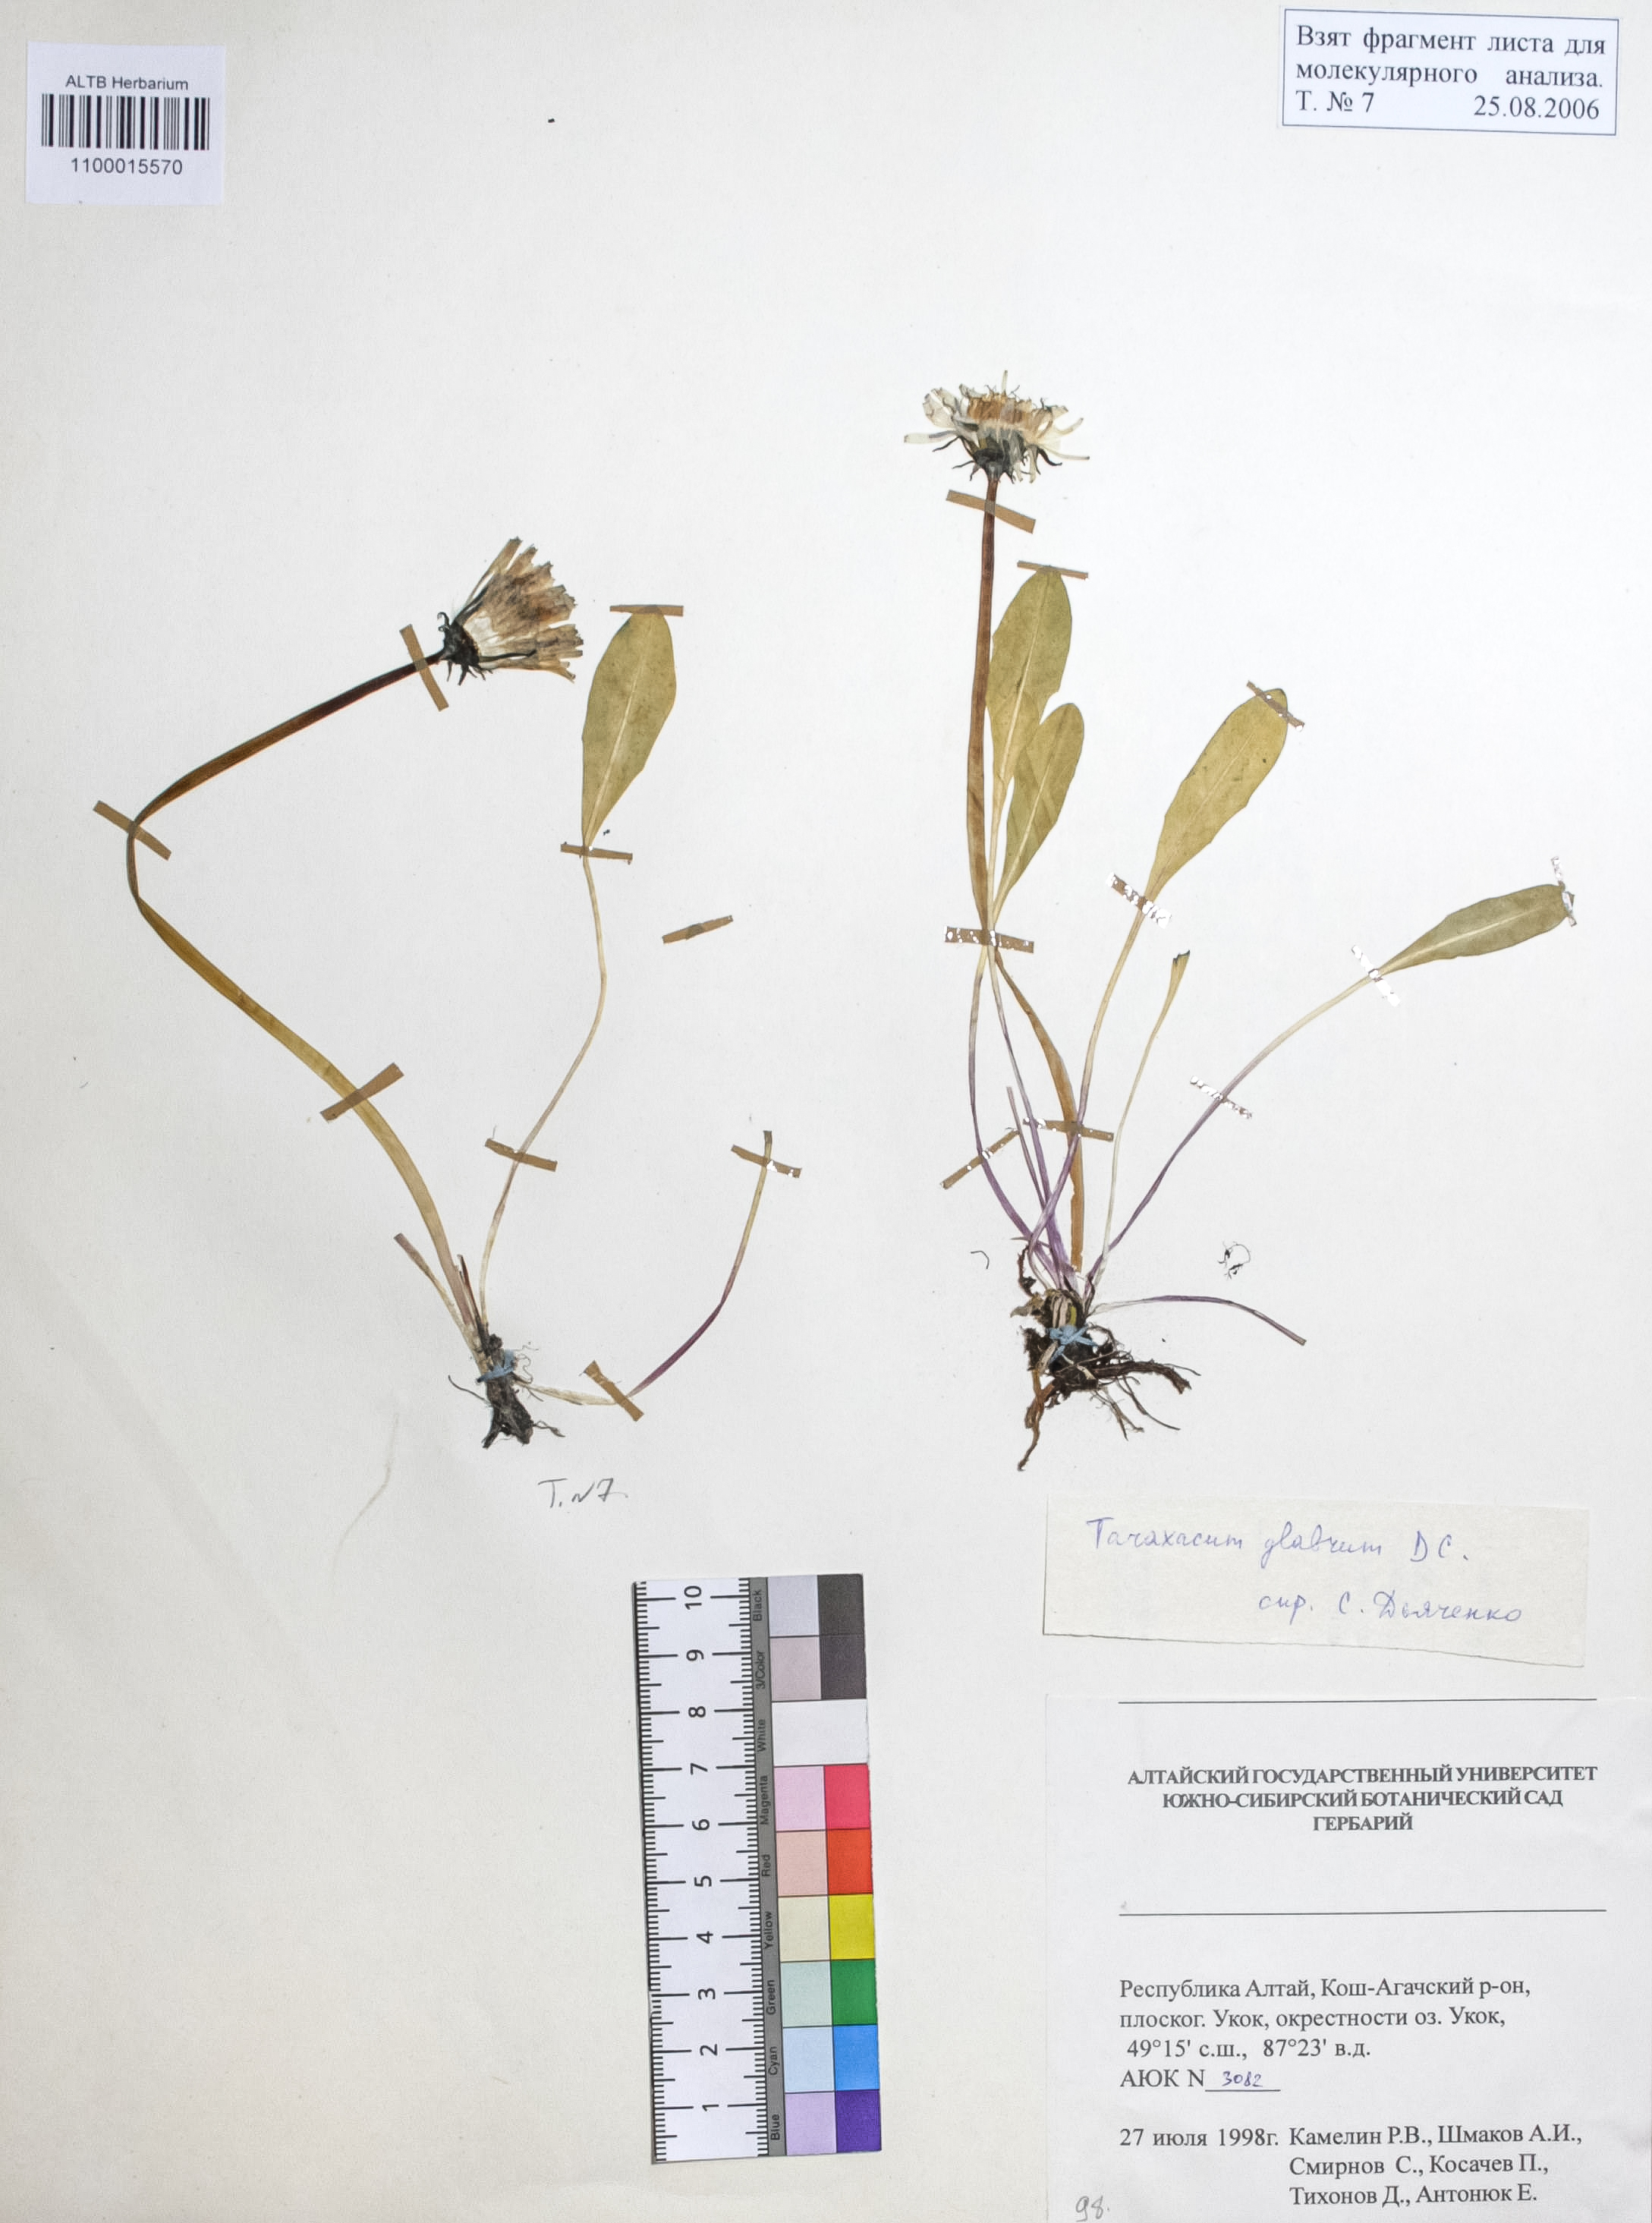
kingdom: Plantae
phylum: Tracheophyta
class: Magnoliopsida
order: Asterales
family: Asteraceae
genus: Taraxacum
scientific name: Taraxacum glabrum
